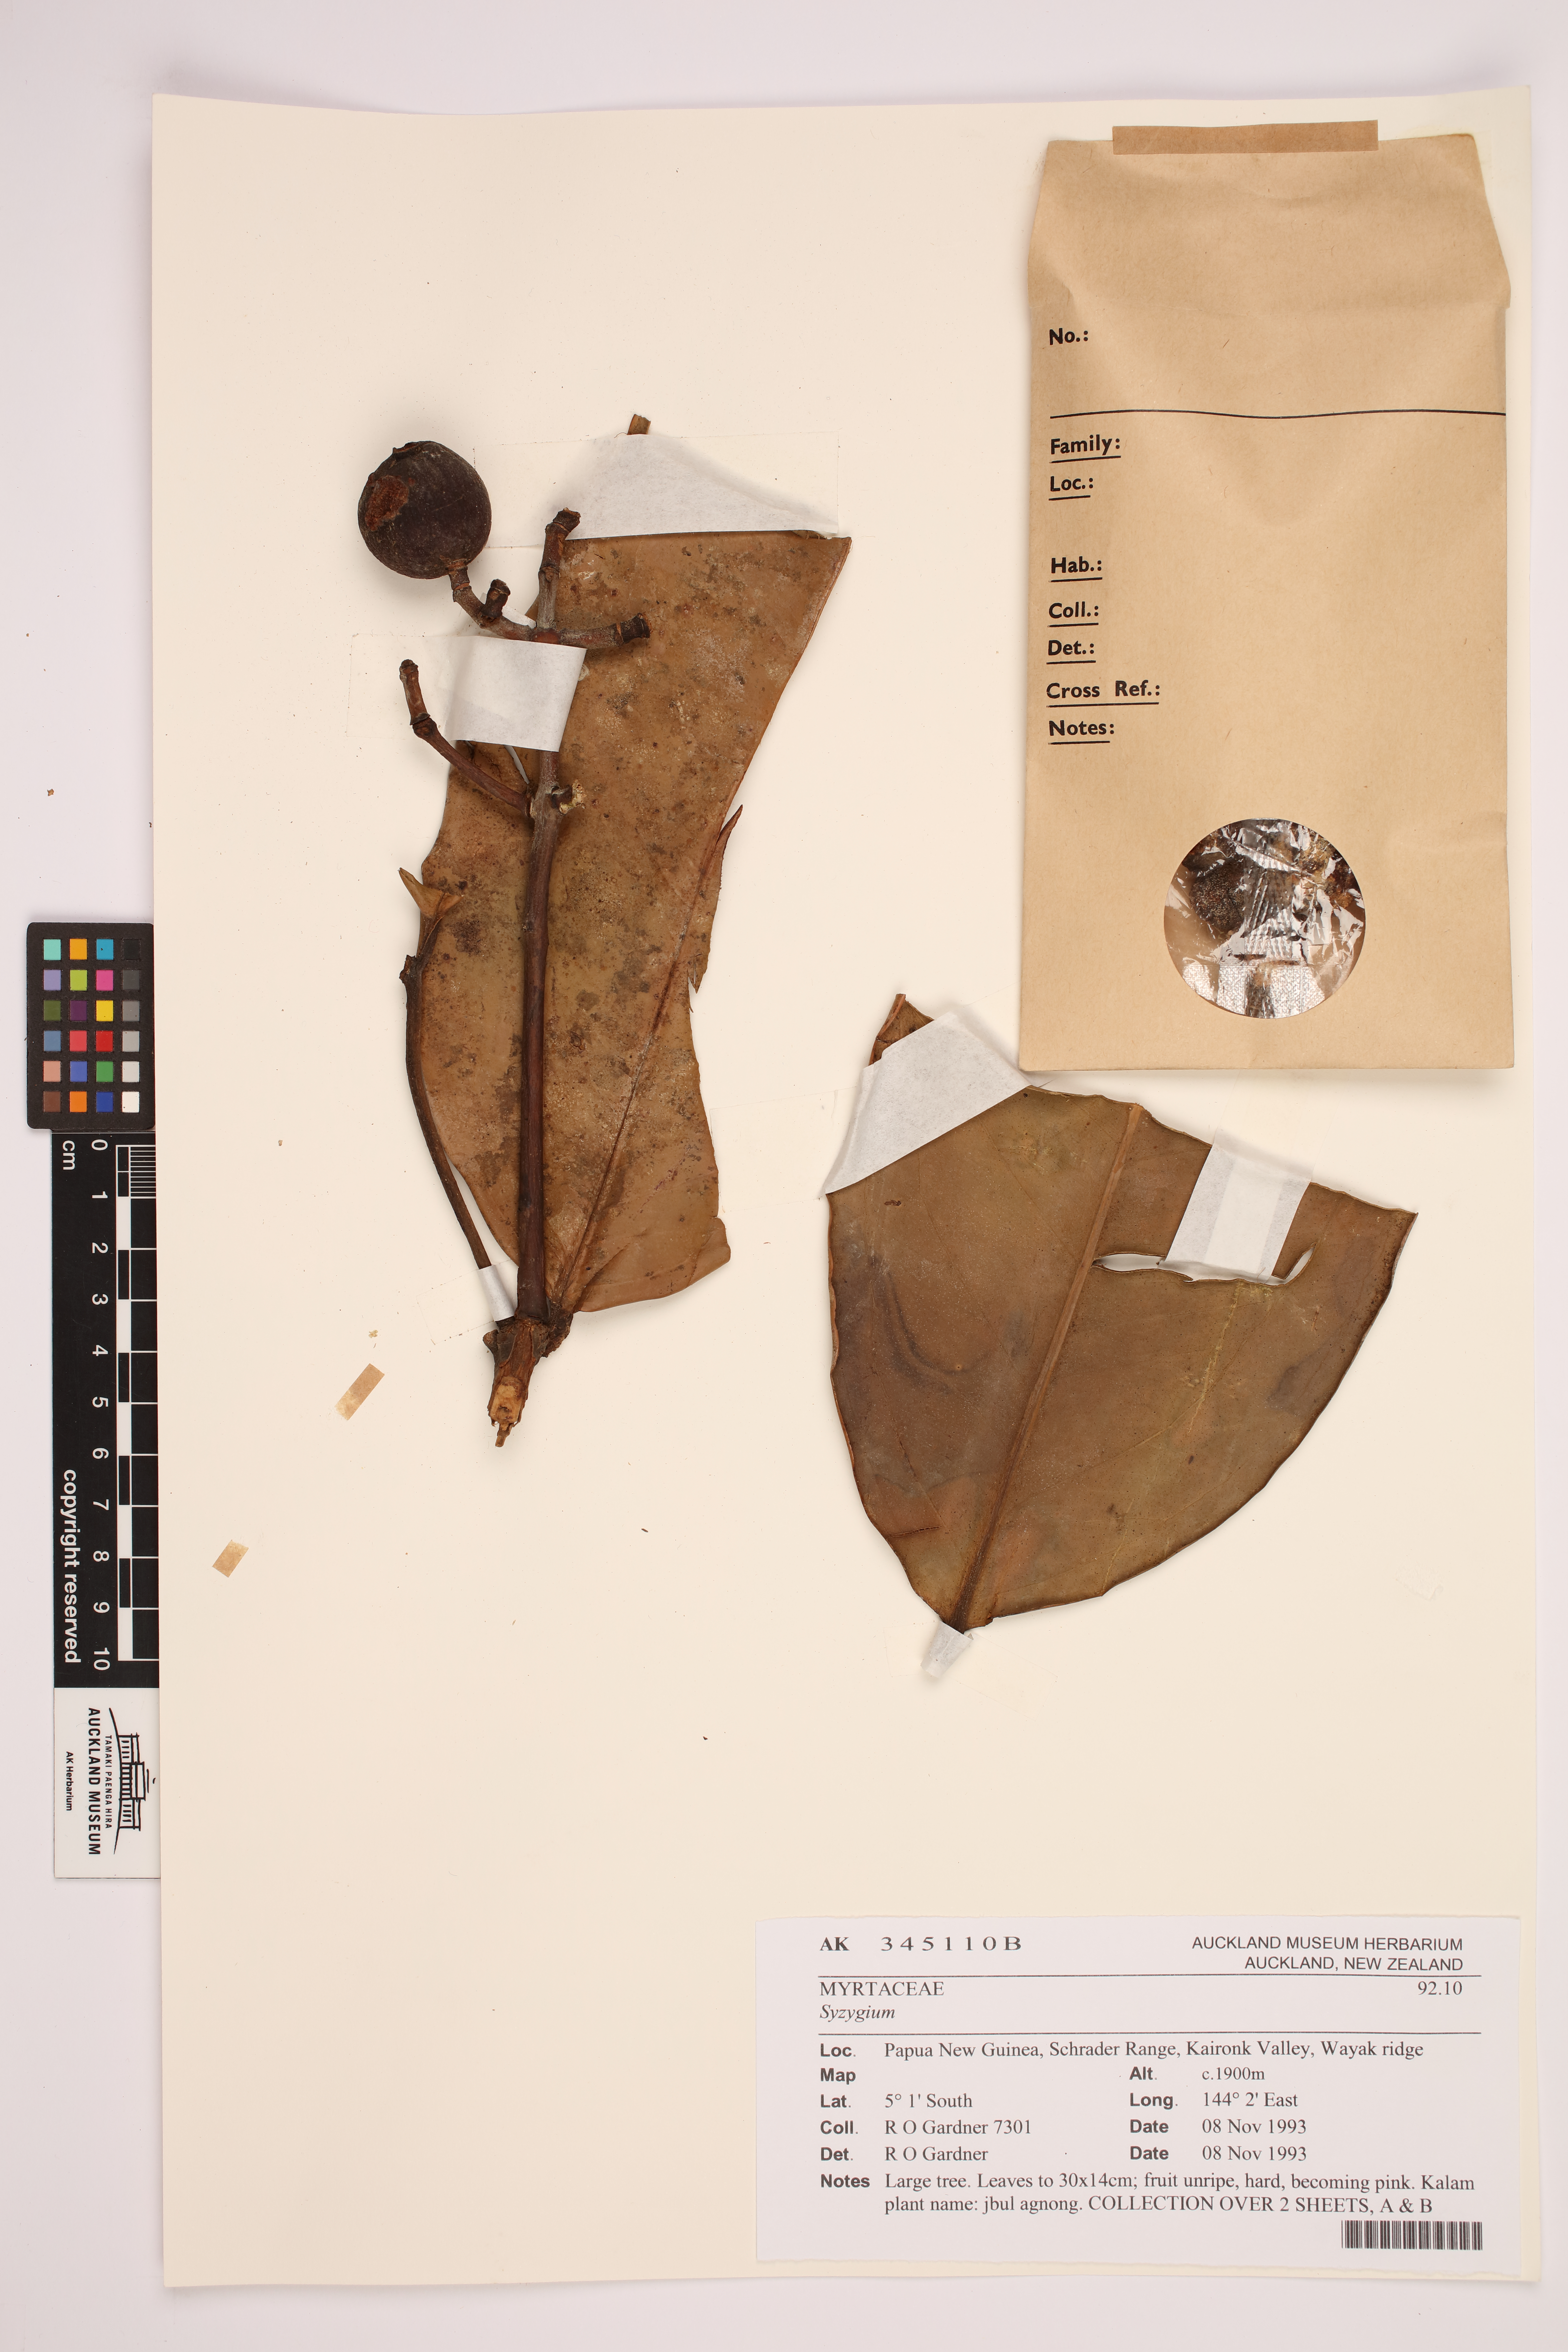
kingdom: Plantae
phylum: Tracheophyta
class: Magnoliopsida
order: Myrtales
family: Myrtaceae
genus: Syzygium
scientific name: Syzygium
